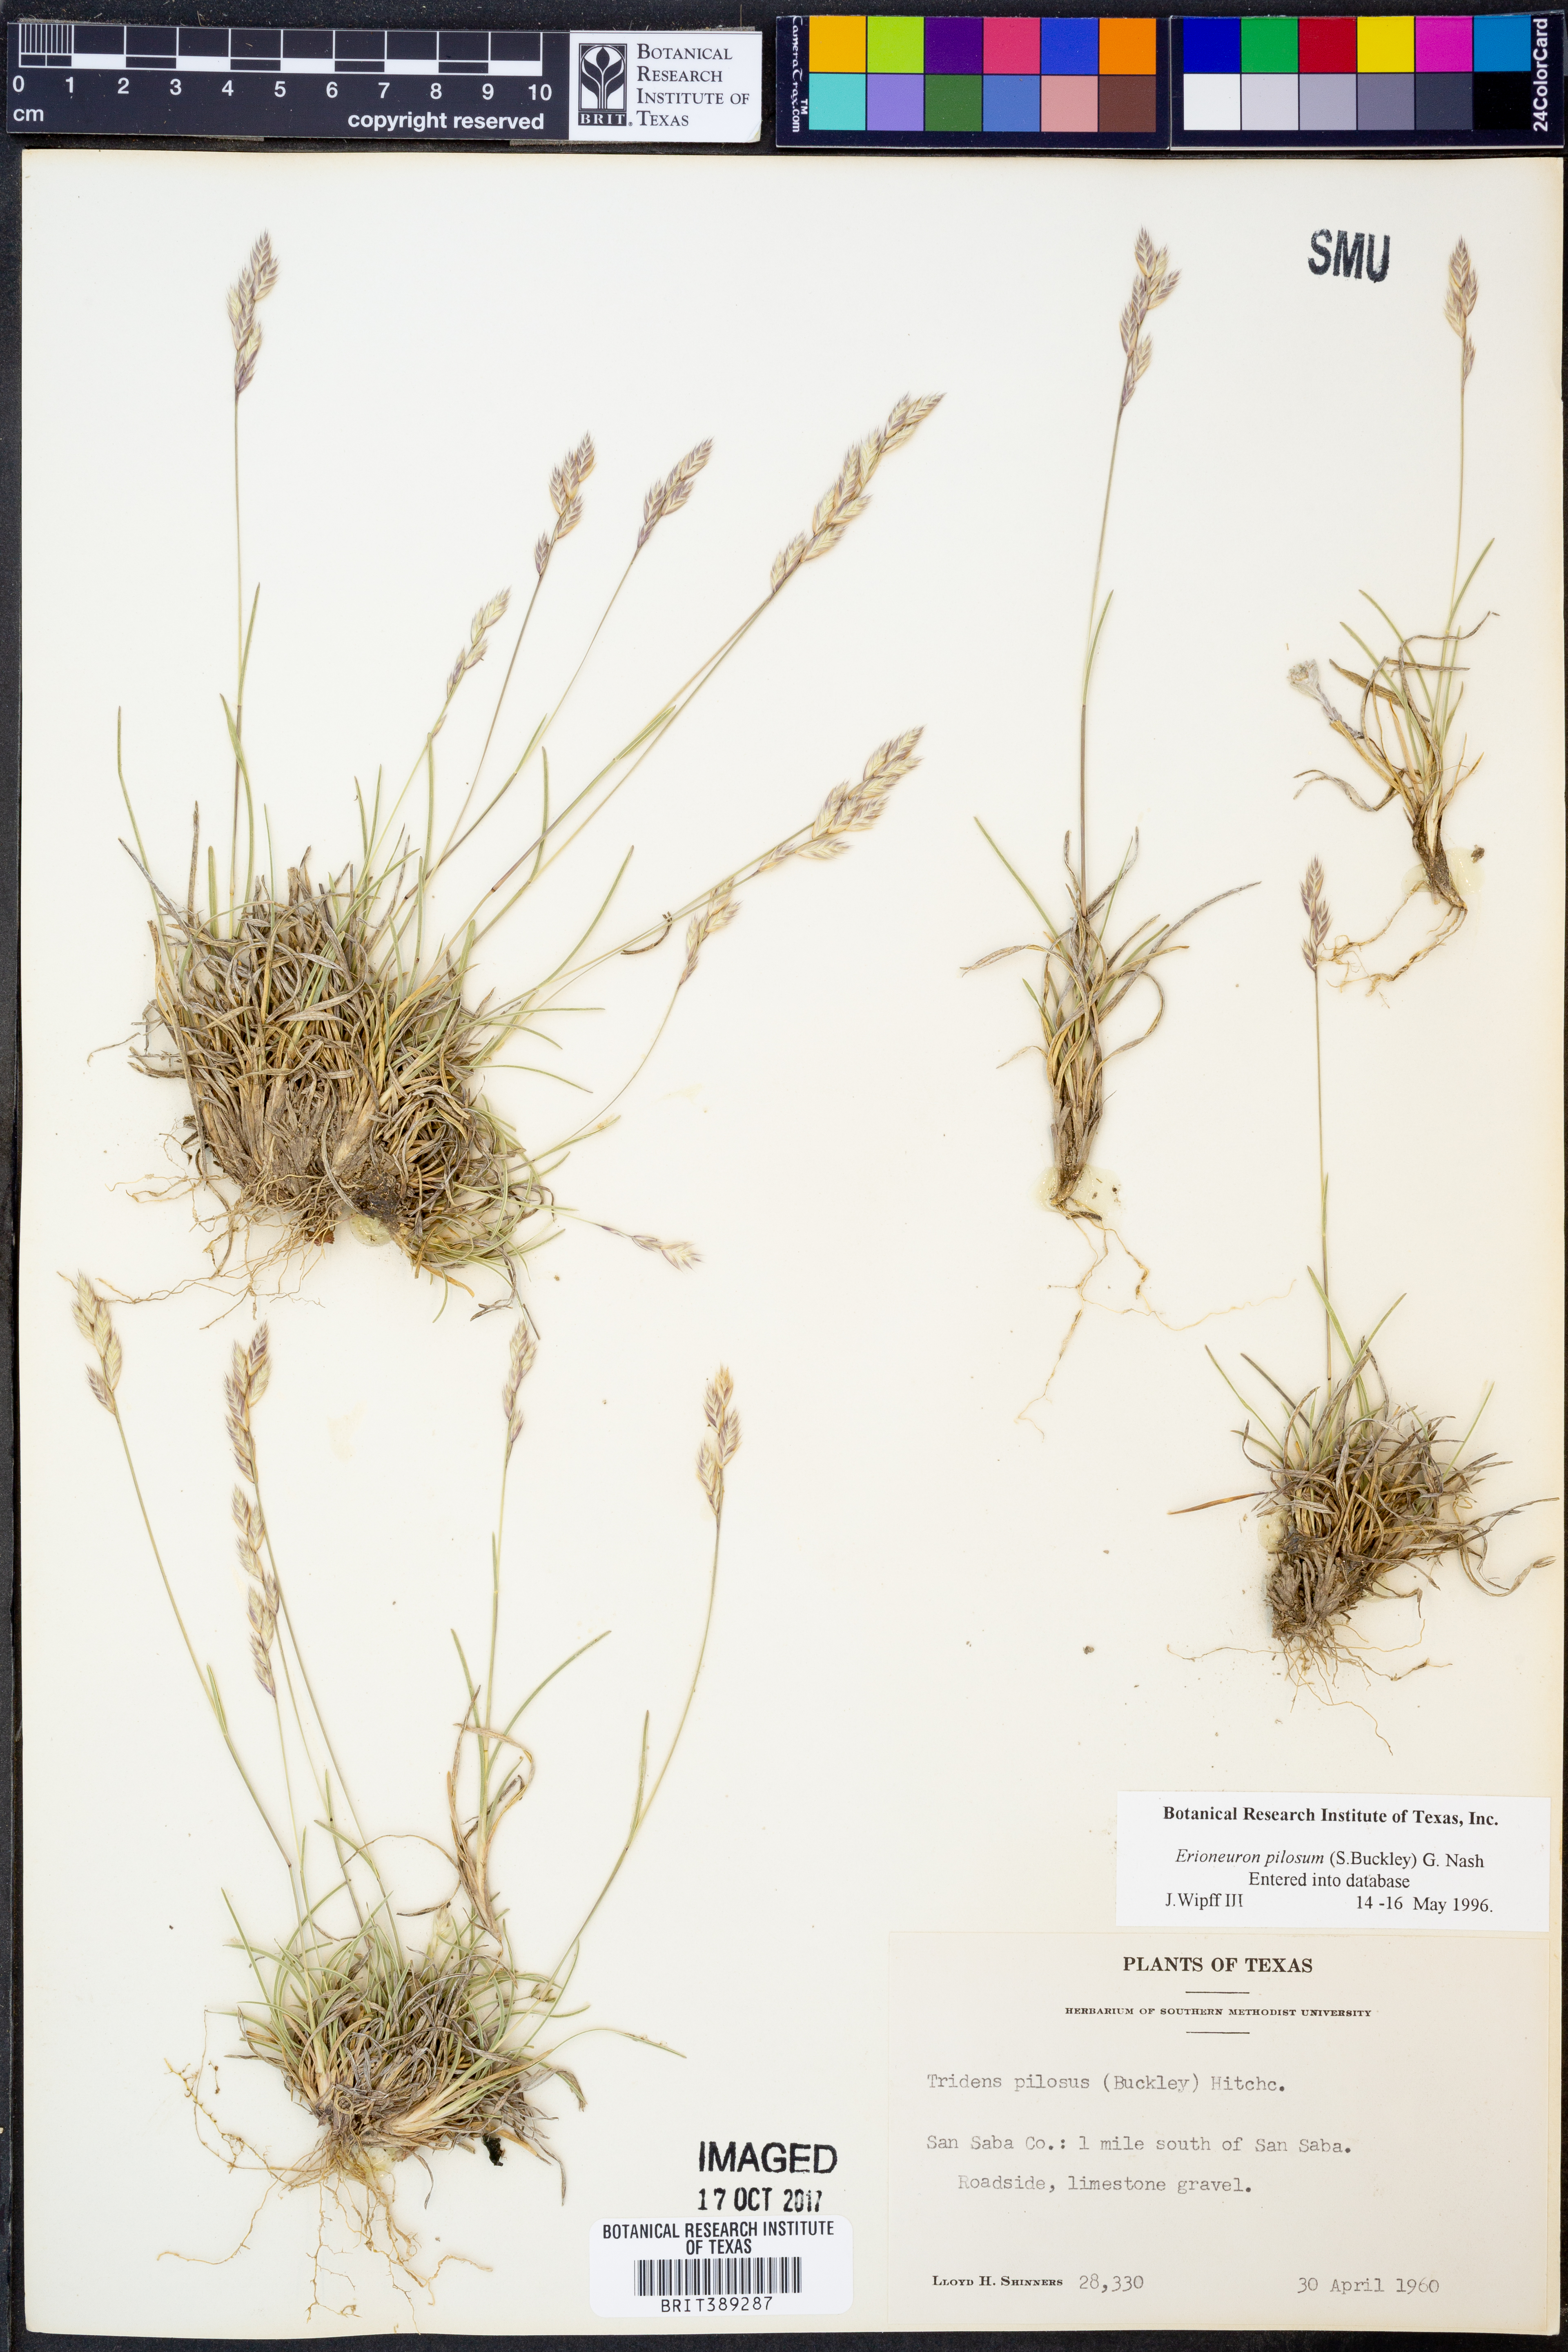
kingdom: Plantae
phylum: Tracheophyta
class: Liliopsida
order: Poales
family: Poaceae
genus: Erioneuron
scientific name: Erioneuron pilosum
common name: Hairy woolly grass
